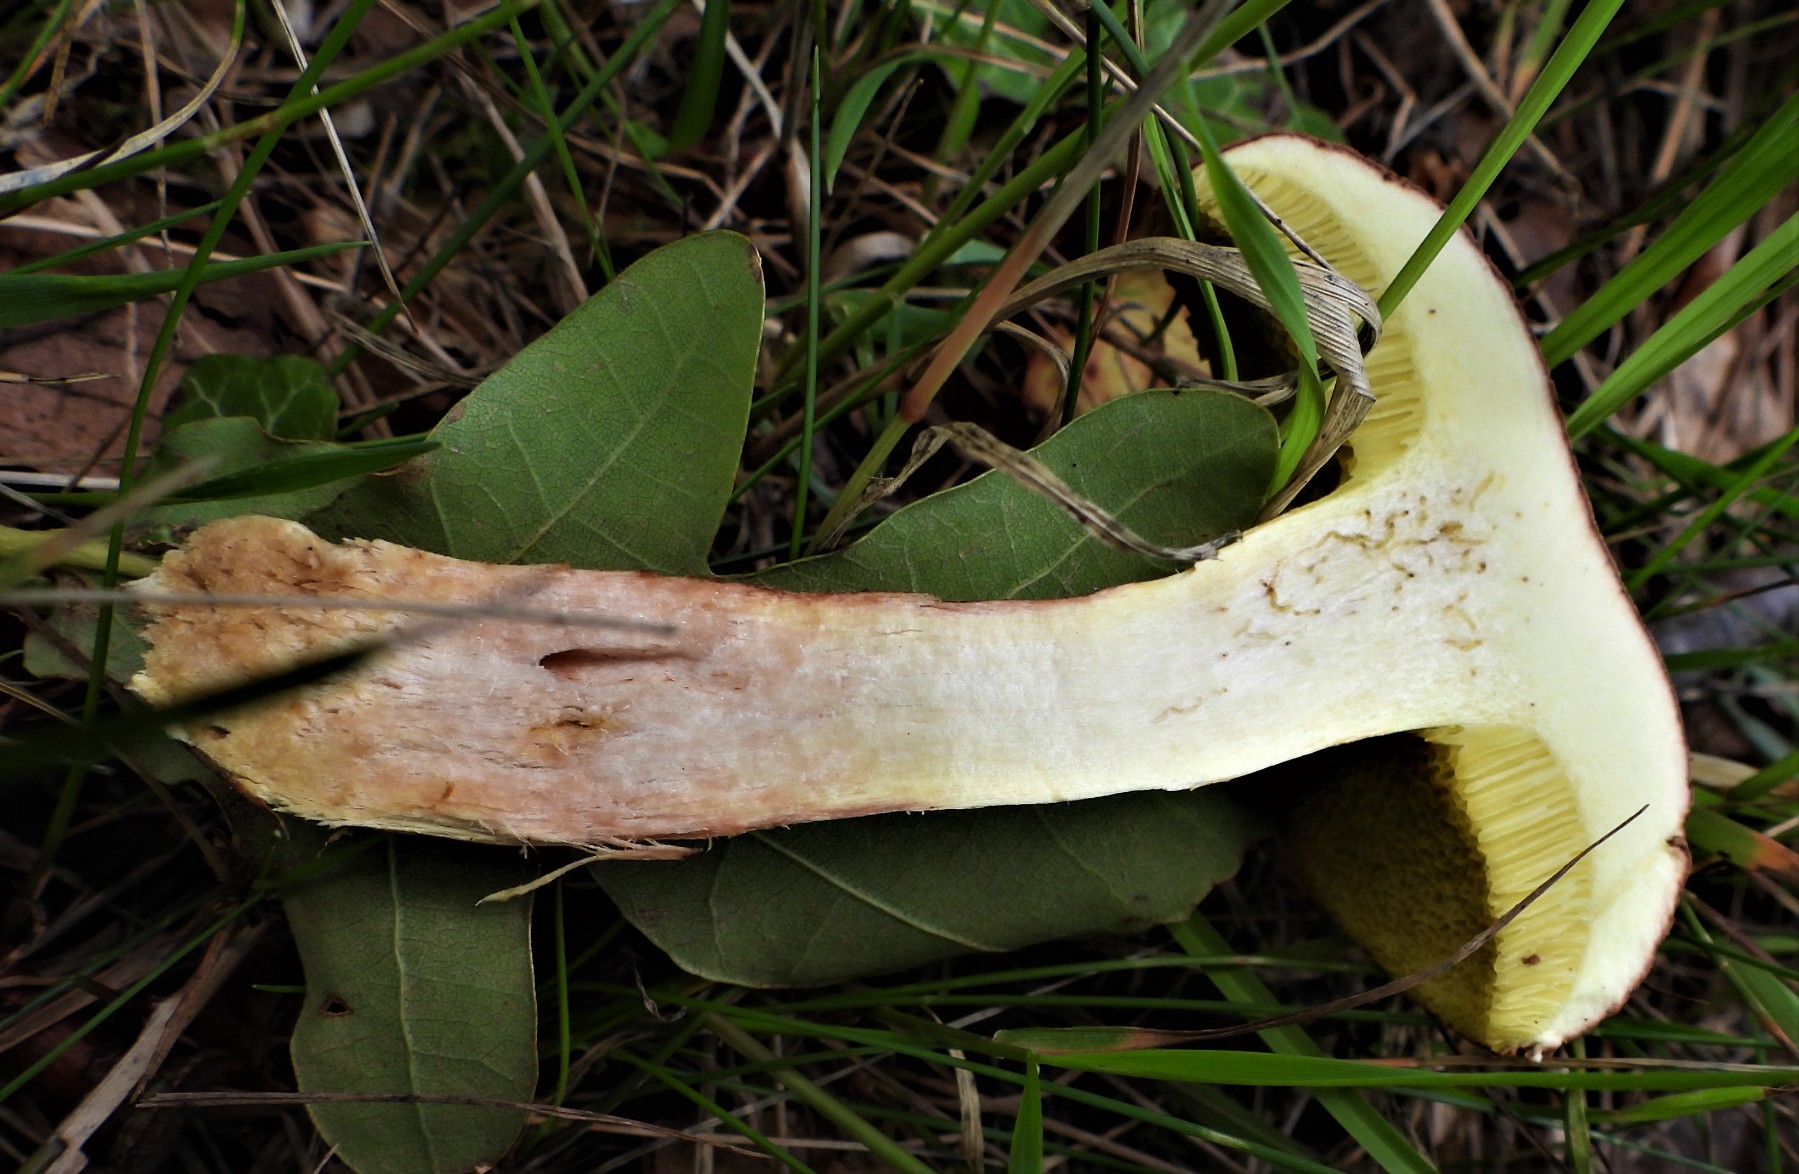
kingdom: Fungi
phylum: Basidiomycota
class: Agaricomycetes
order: Boletales
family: Boletaceae
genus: Xerocomus
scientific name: Xerocomus
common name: filtrørhat
